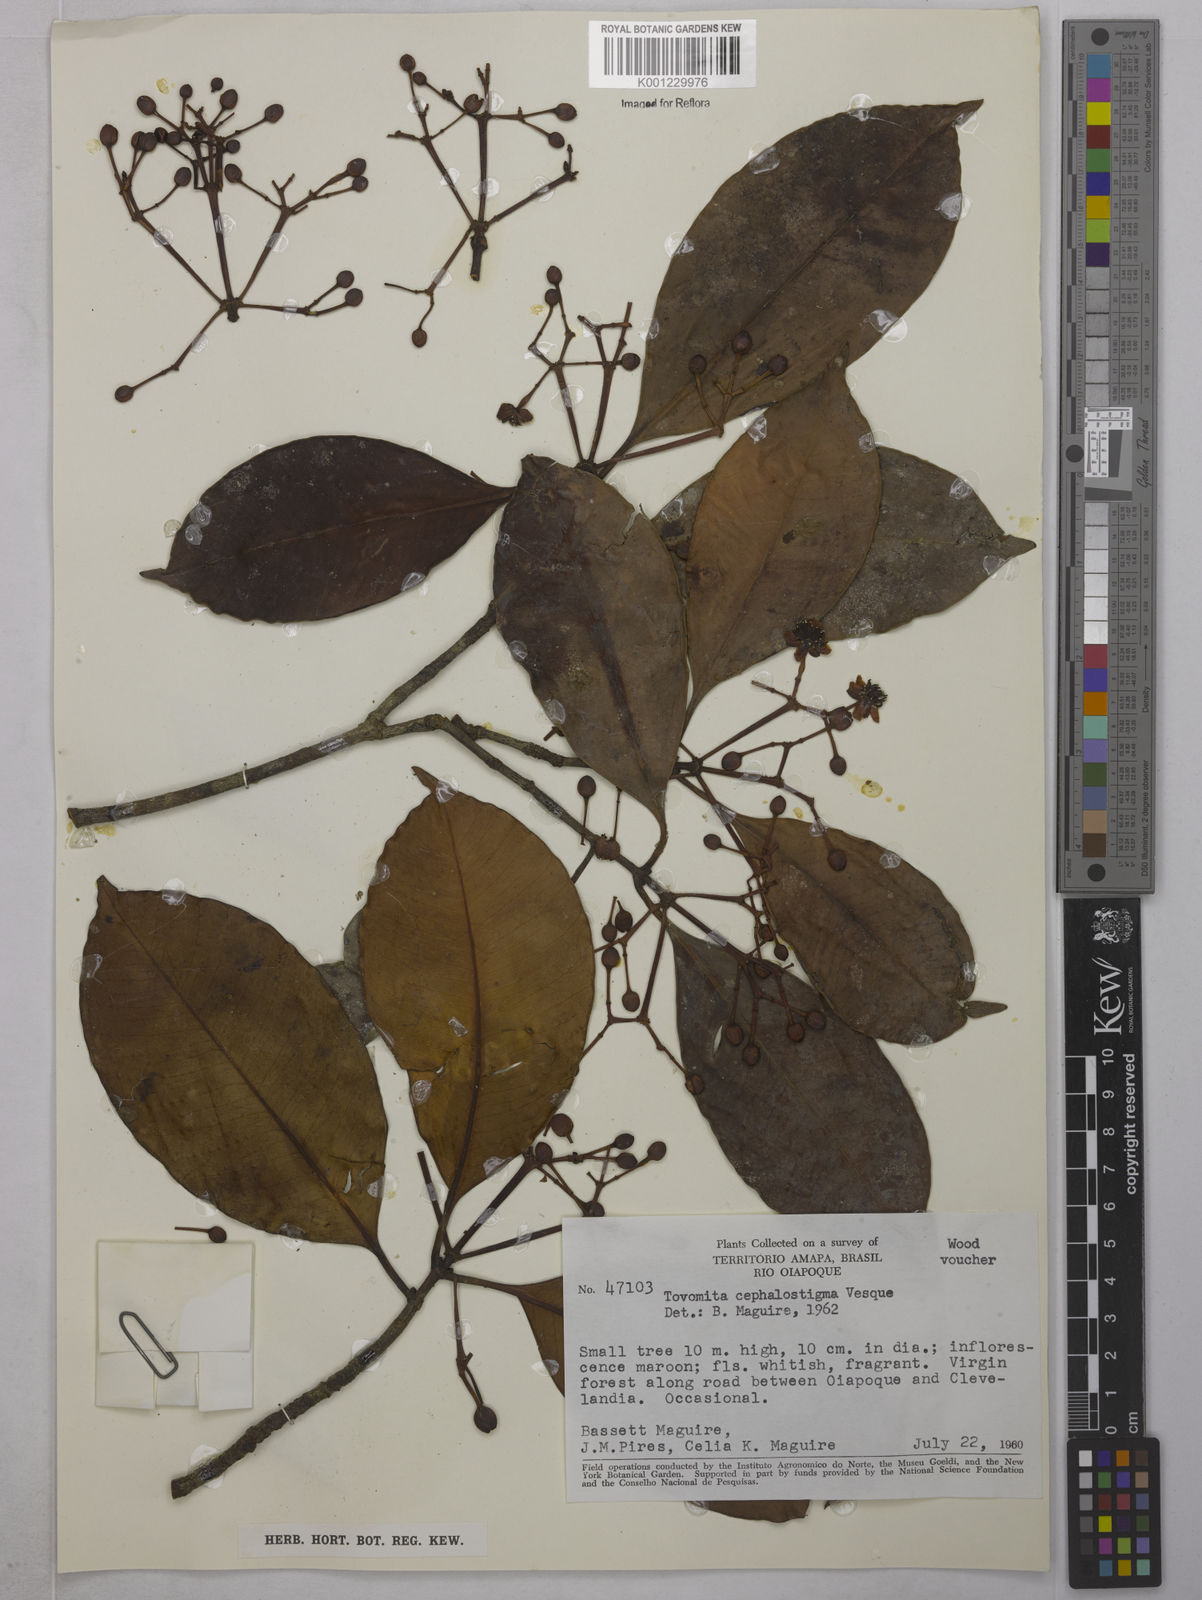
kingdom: Plantae
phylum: Tracheophyta
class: Magnoliopsida
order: Malpighiales
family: Clusiaceae
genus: Tovomita
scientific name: Tovomita umbellata
